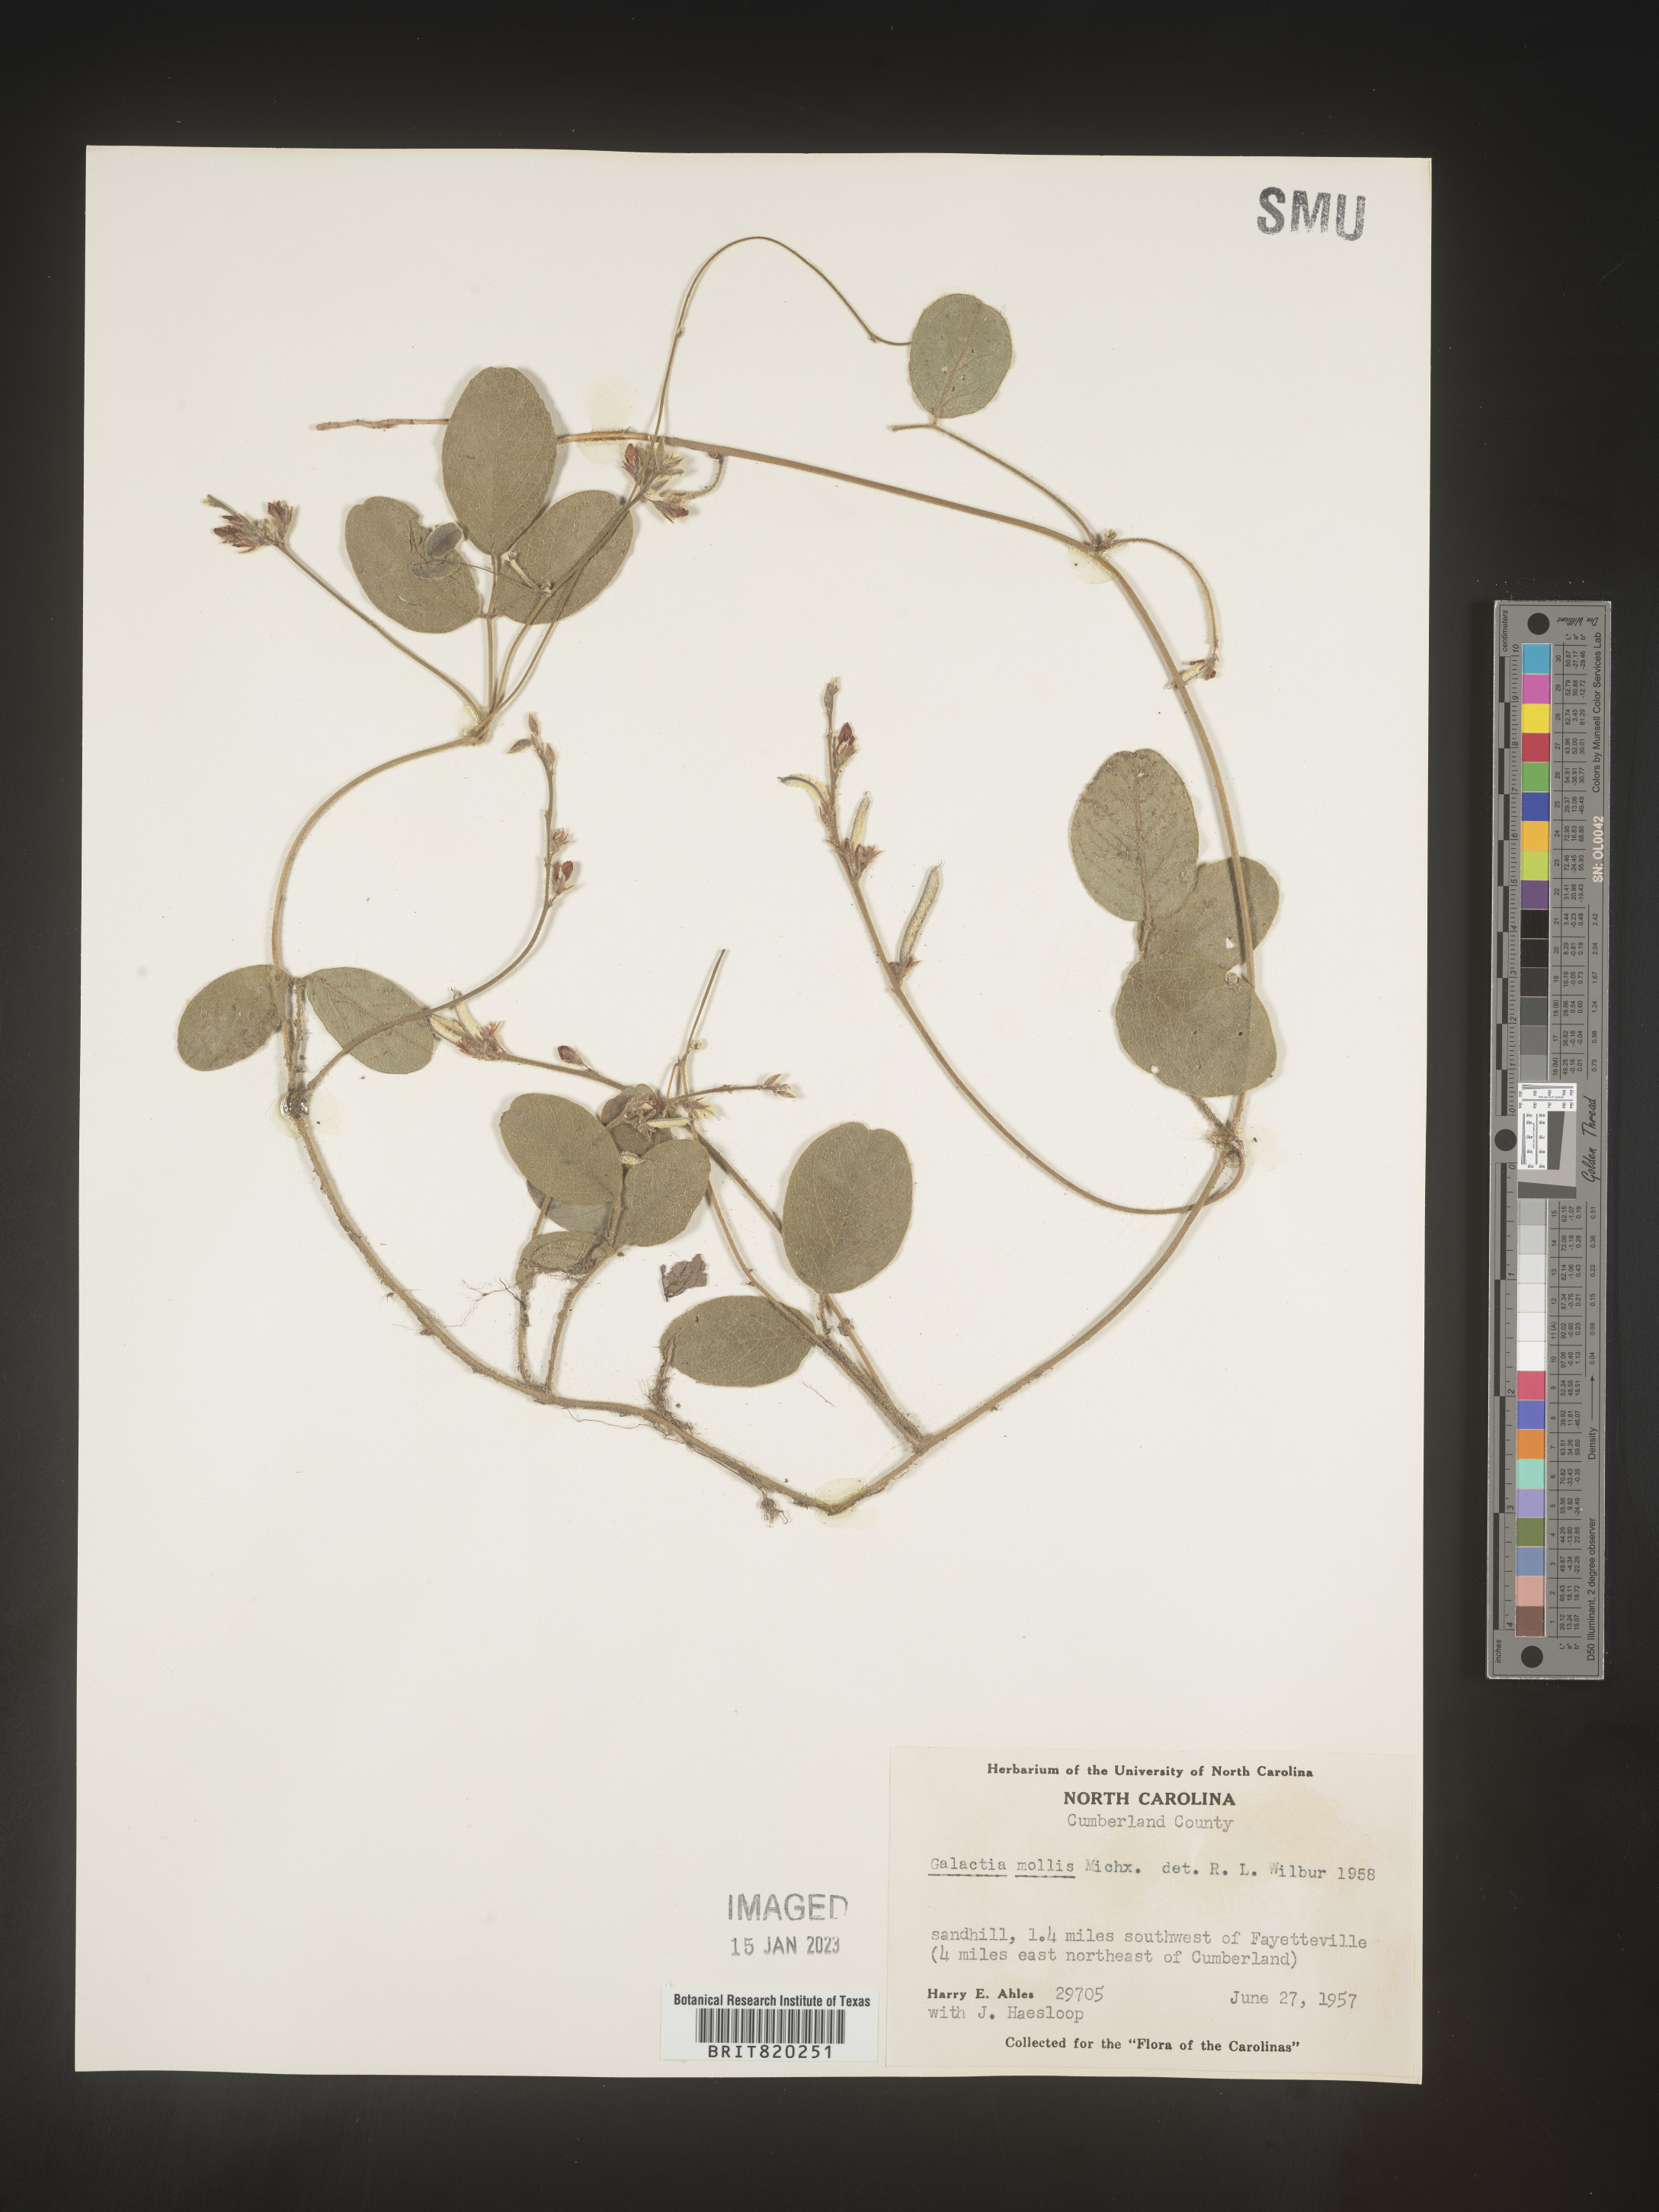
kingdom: Plantae
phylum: Tracheophyta
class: Magnoliopsida
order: Fabales
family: Fabaceae
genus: Galactia
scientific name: Galactia mollis
